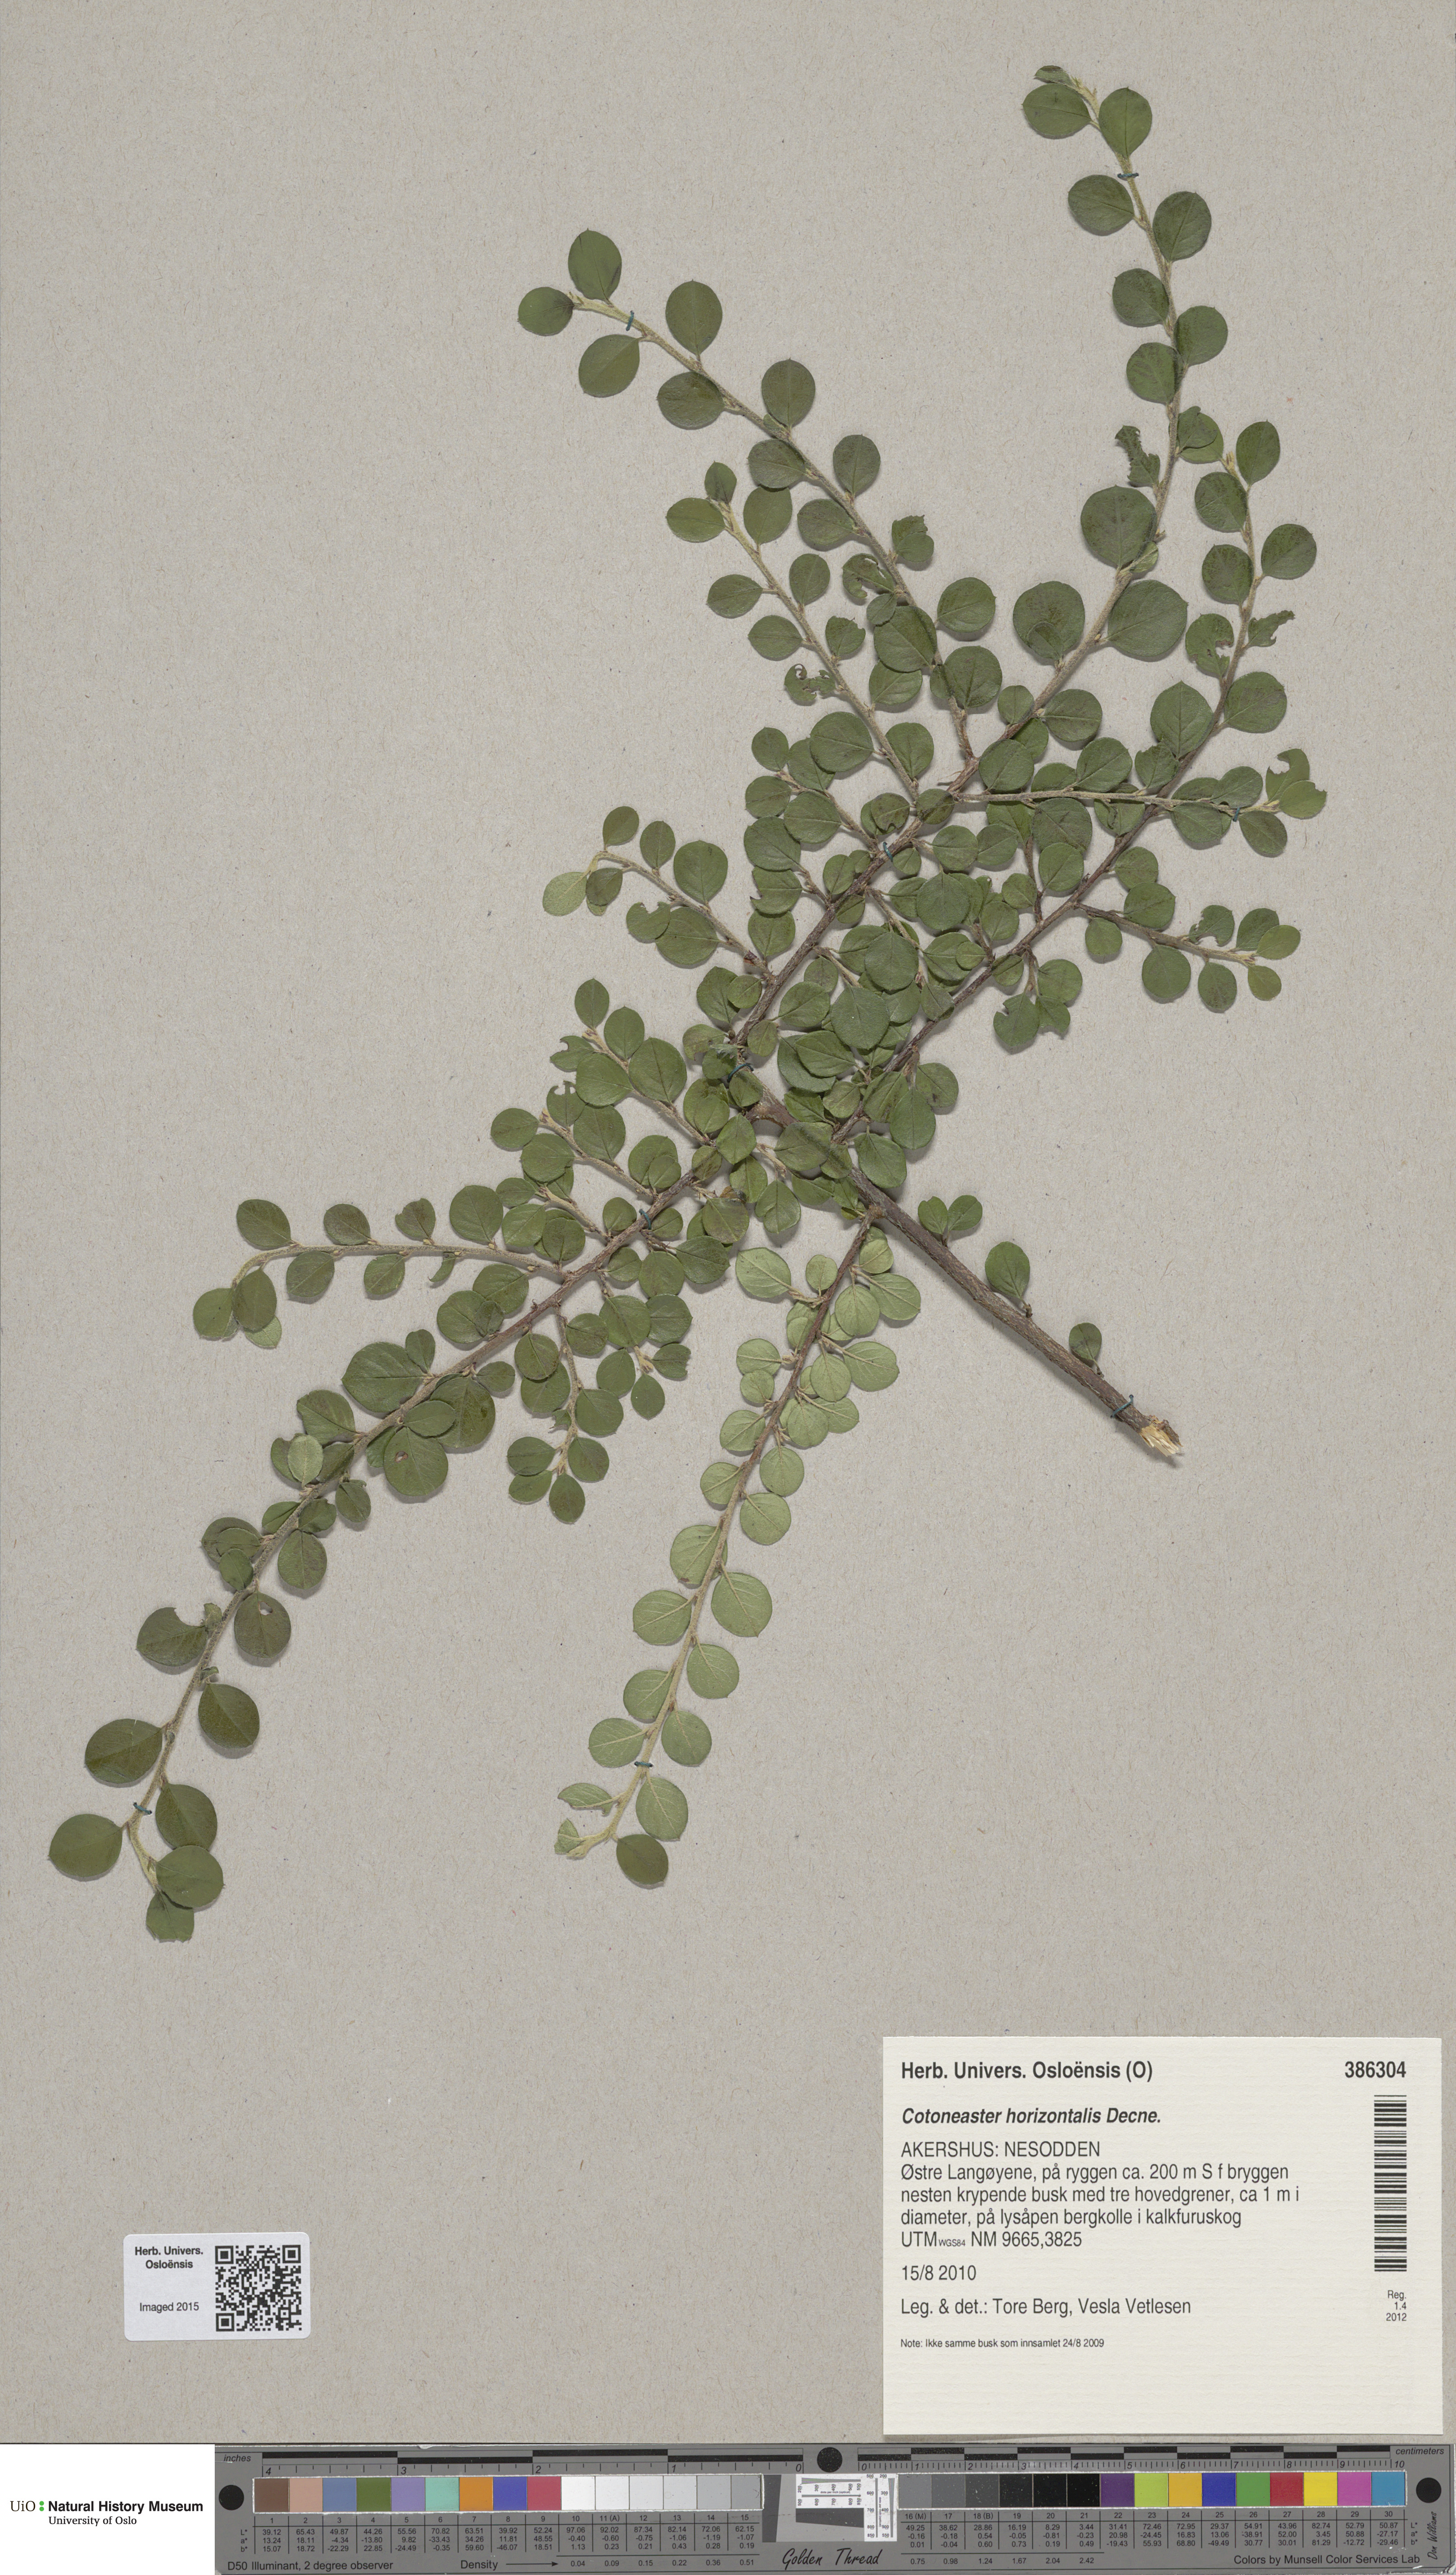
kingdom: Plantae
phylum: Tracheophyta
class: Magnoliopsida
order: Rosales
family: Rosaceae
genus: Cotoneaster
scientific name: Cotoneaster horizontalis
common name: Wall cotoneaster
